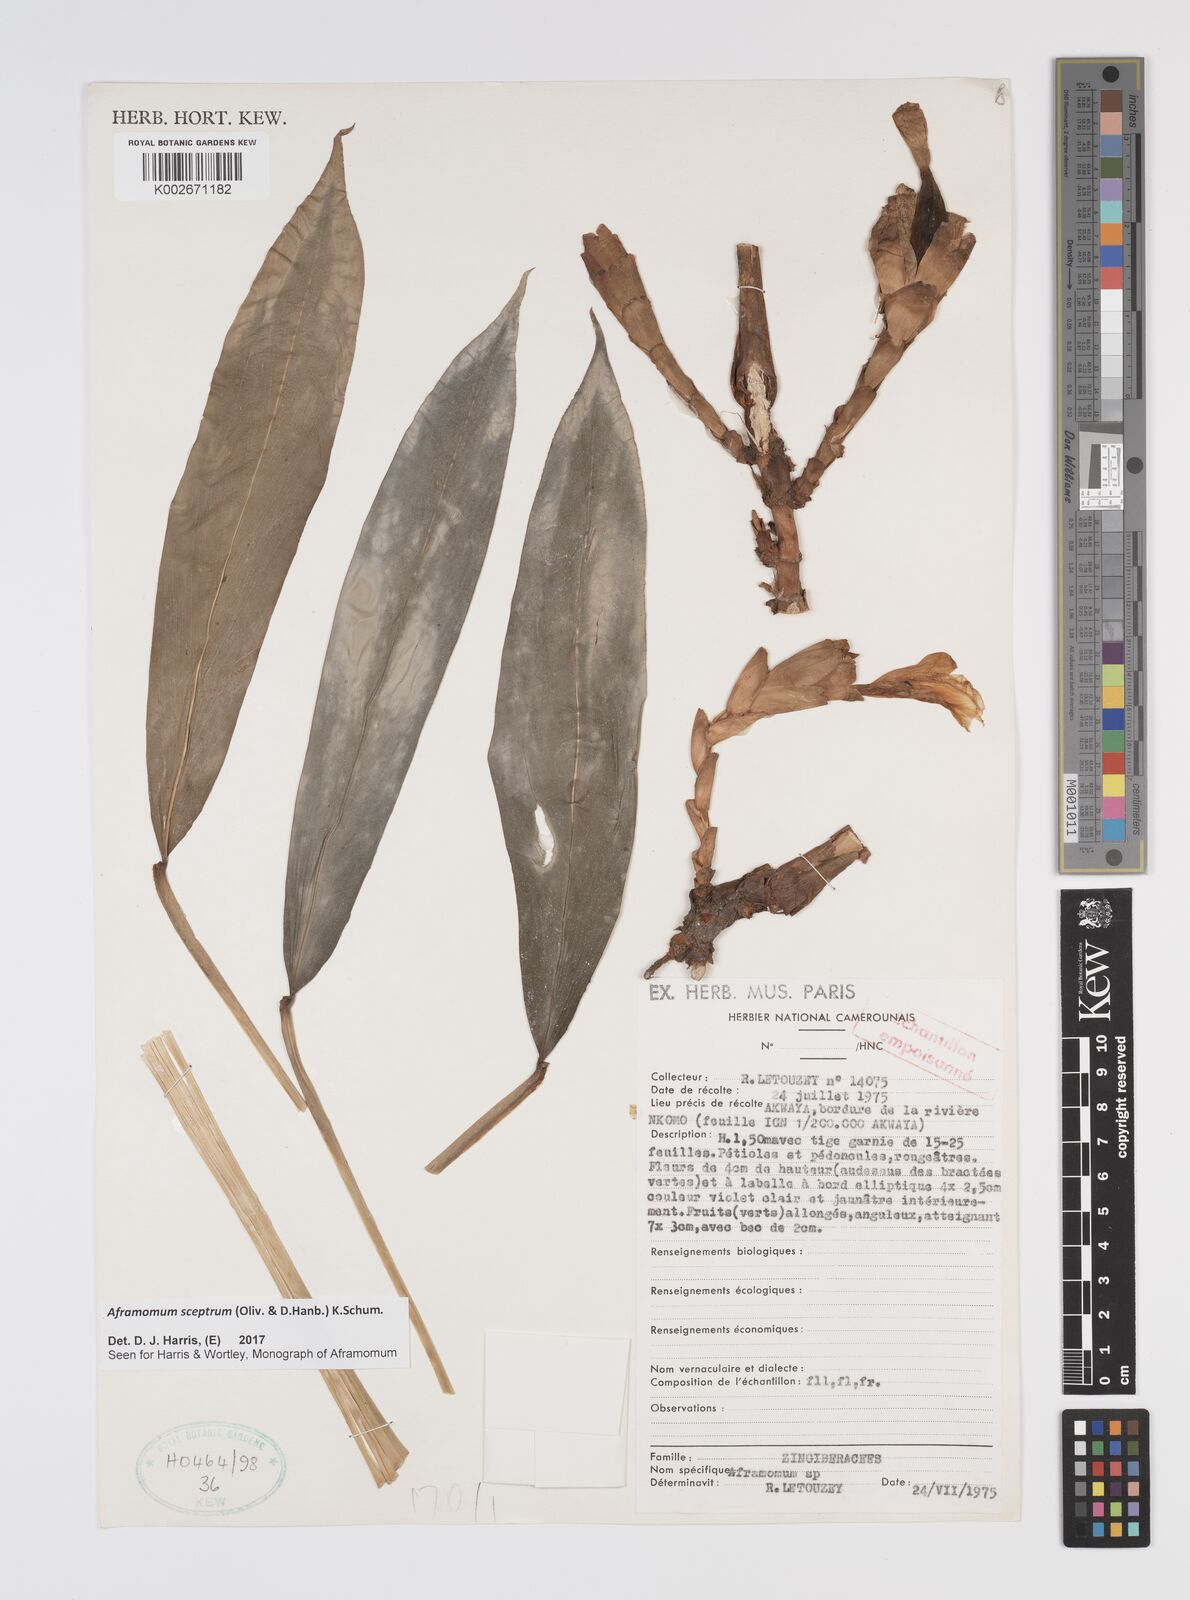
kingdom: Plantae
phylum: Tracheophyta
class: Liliopsida
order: Zingiberales
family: Zingiberaceae
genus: Aframomum
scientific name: Aframomum cereum
